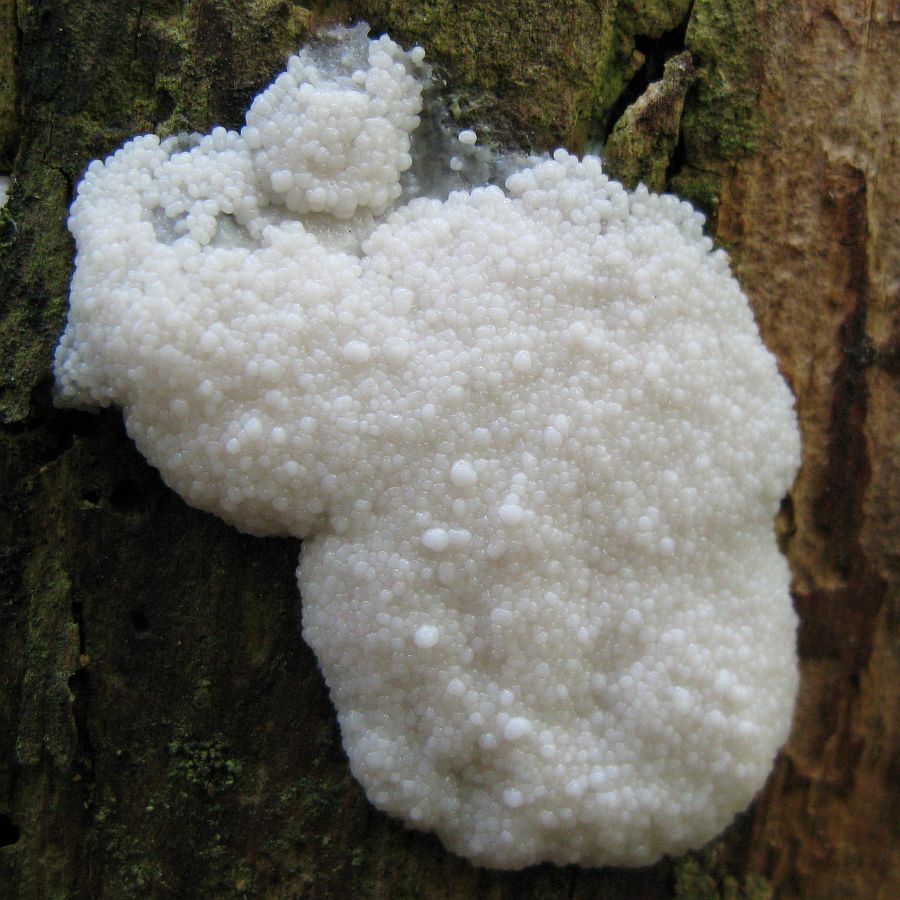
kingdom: Protozoa
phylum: Mycetozoa
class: Myxomycetes
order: Cribrariales
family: Tubiferaceae
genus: Reticularia
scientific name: Reticularia lycoperdon
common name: skinnende støvpude
